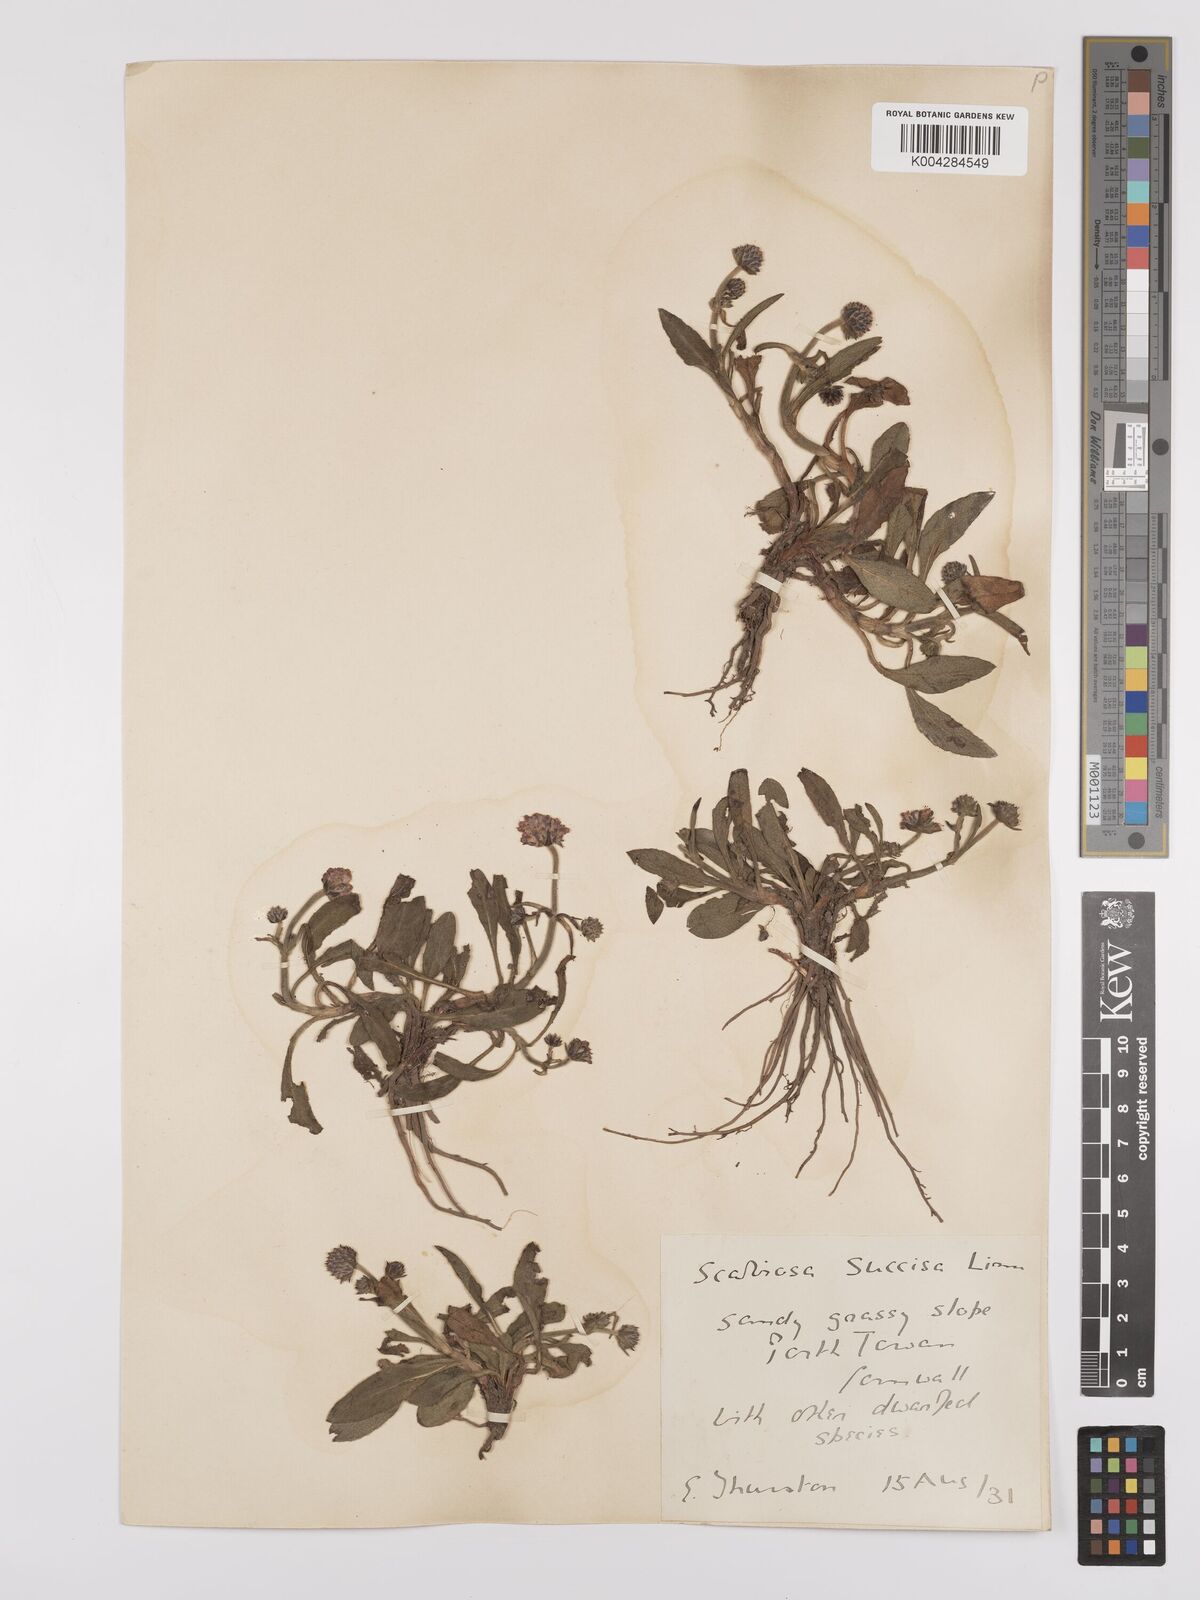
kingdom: Plantae
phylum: Tracheophyta
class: Magnoliopsida
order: Dipsacales
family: Caprifoliaceae
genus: Succisa
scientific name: Succisa pratensis
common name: Devil's-bit
